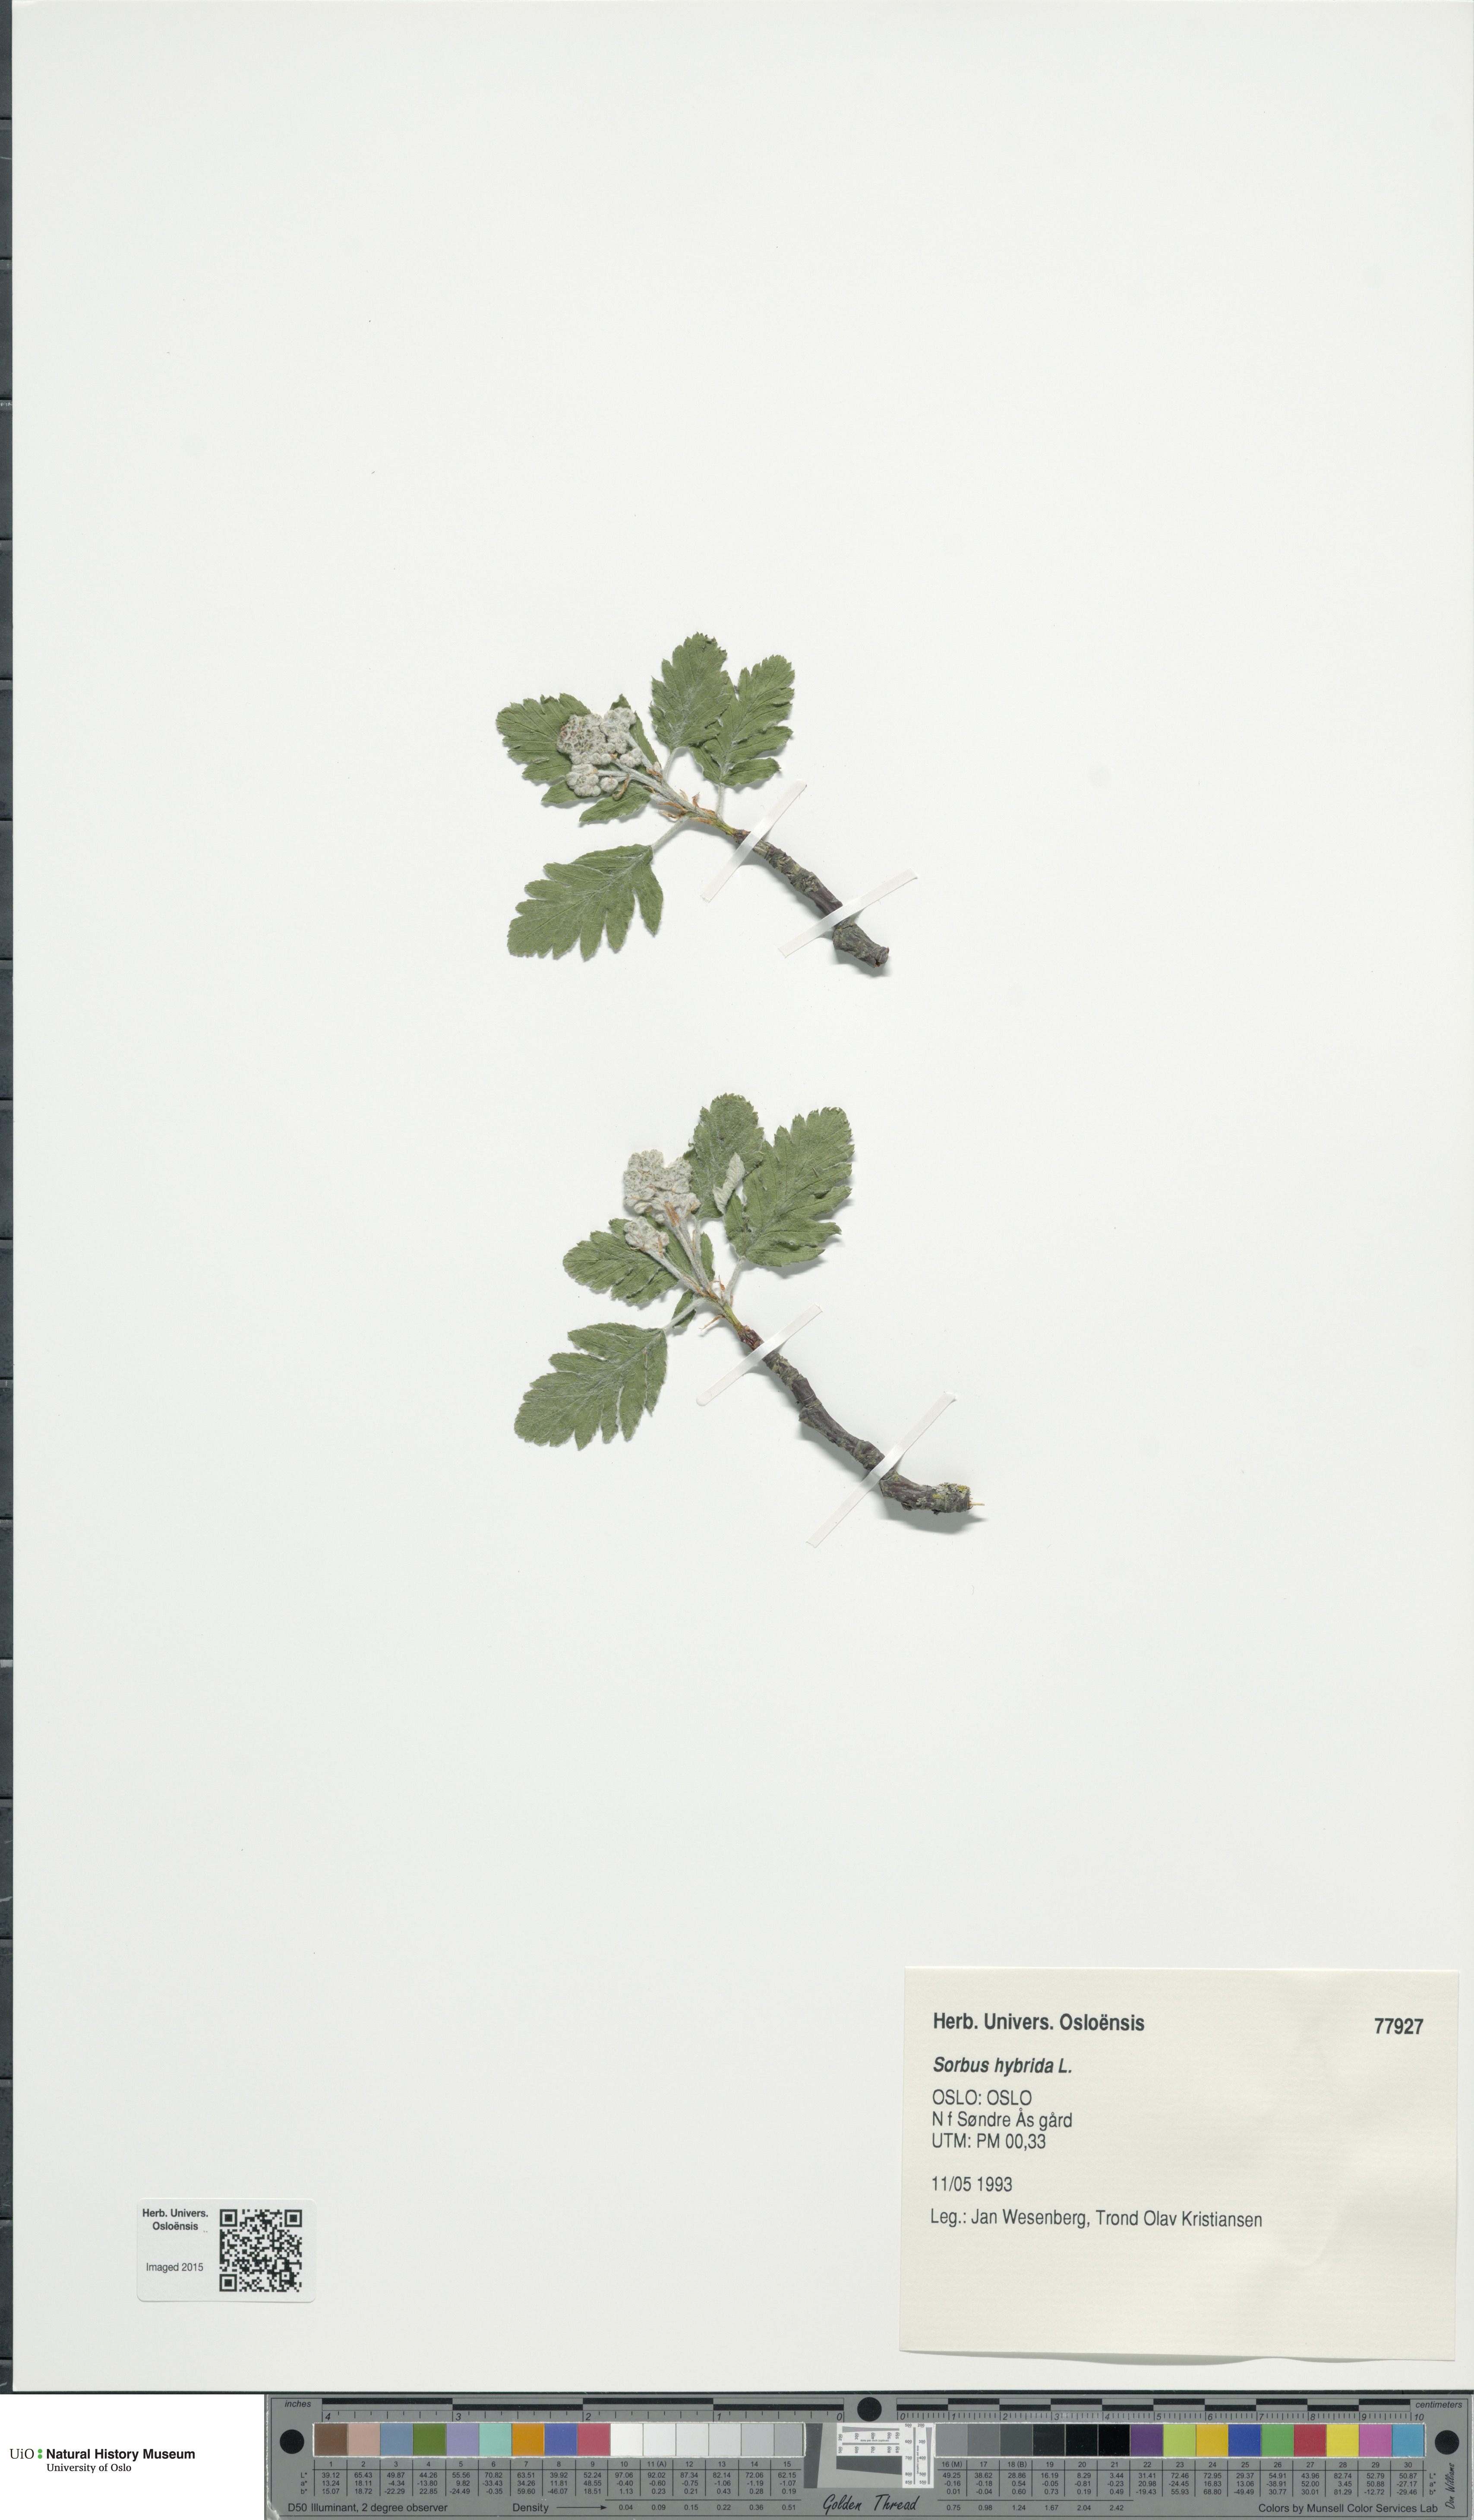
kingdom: Plantae
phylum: Tracheophyta
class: Magnoliopsida
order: Rosales
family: Rosaceae
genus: Hedlundia
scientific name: Hedlundia hybrida
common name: Swedish service-tree
